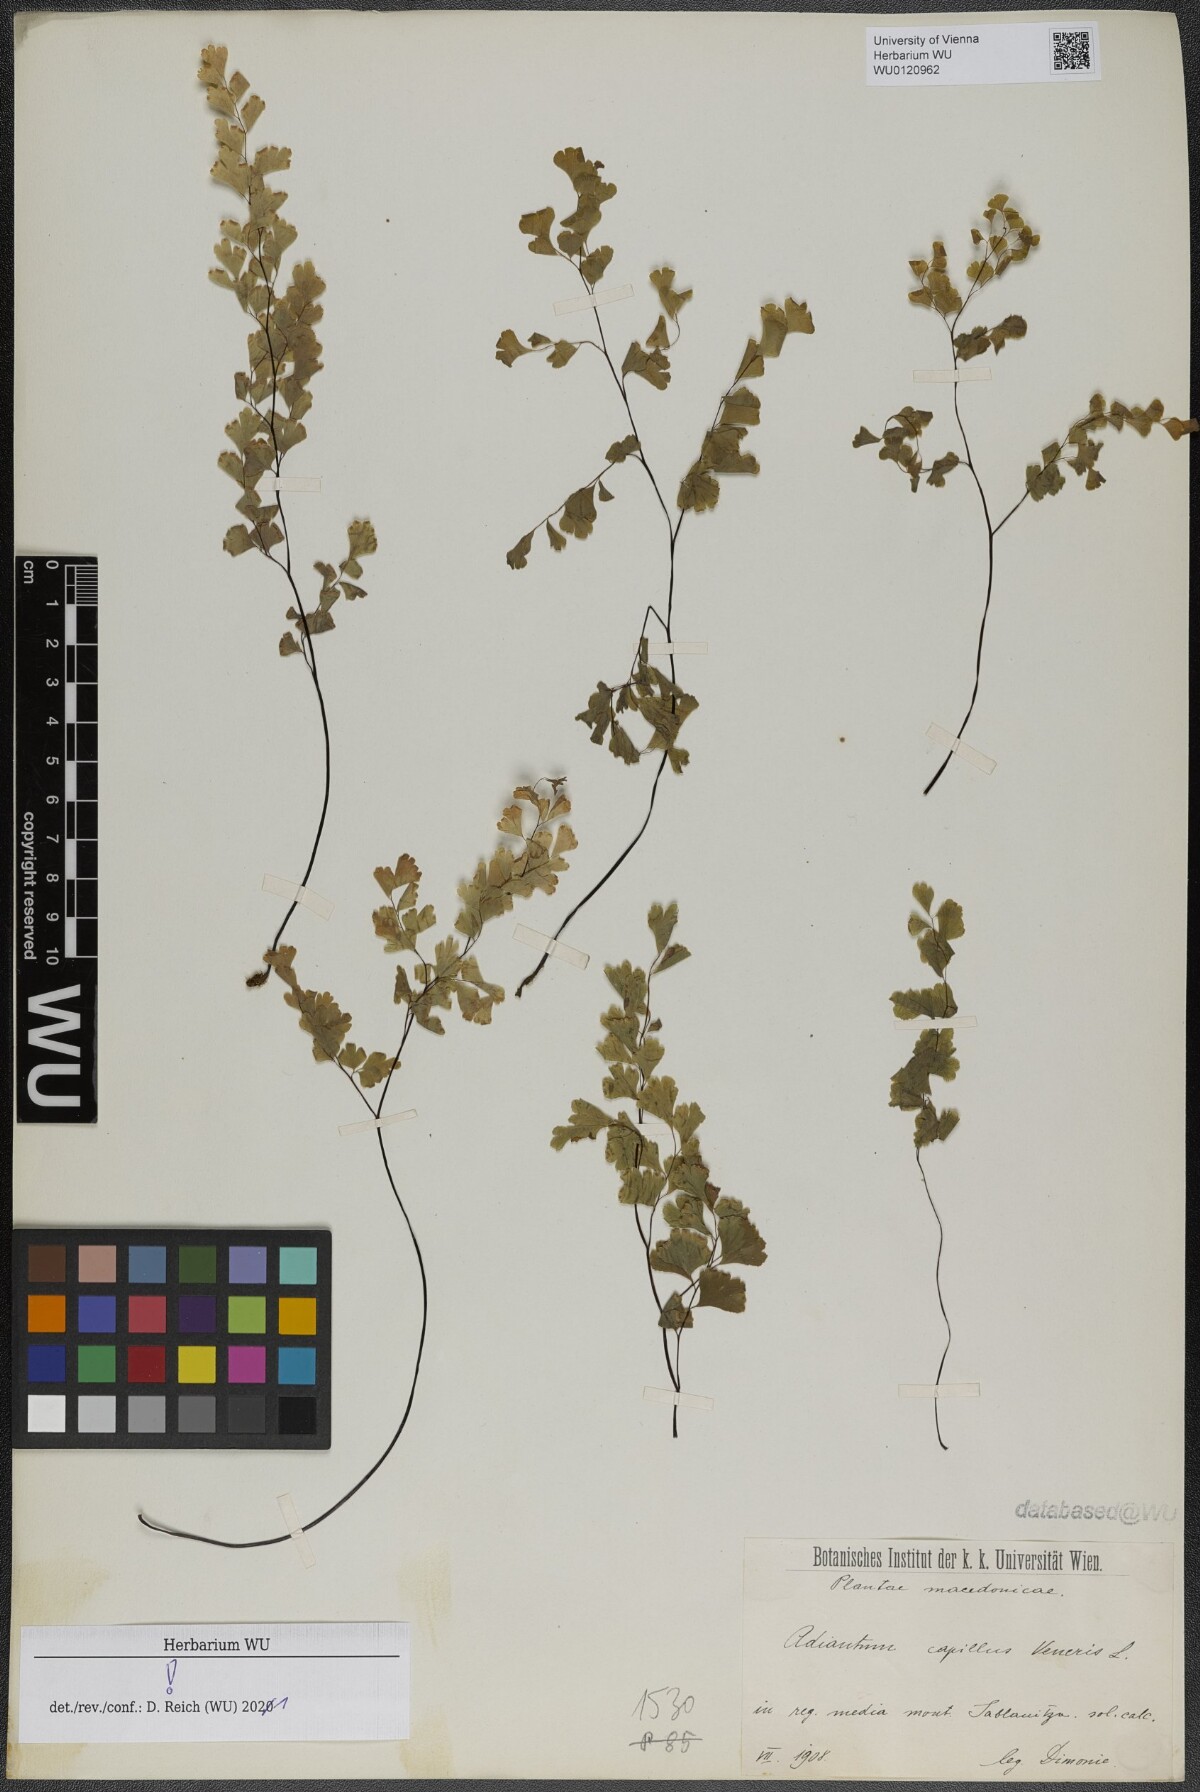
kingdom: Plantae
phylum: Tracheophyta
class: Polypodiopsida
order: Polypodiales
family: Pteridaceae
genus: Adiantum
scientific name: Adiantum capillus-veneris
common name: Maidenhair fern
